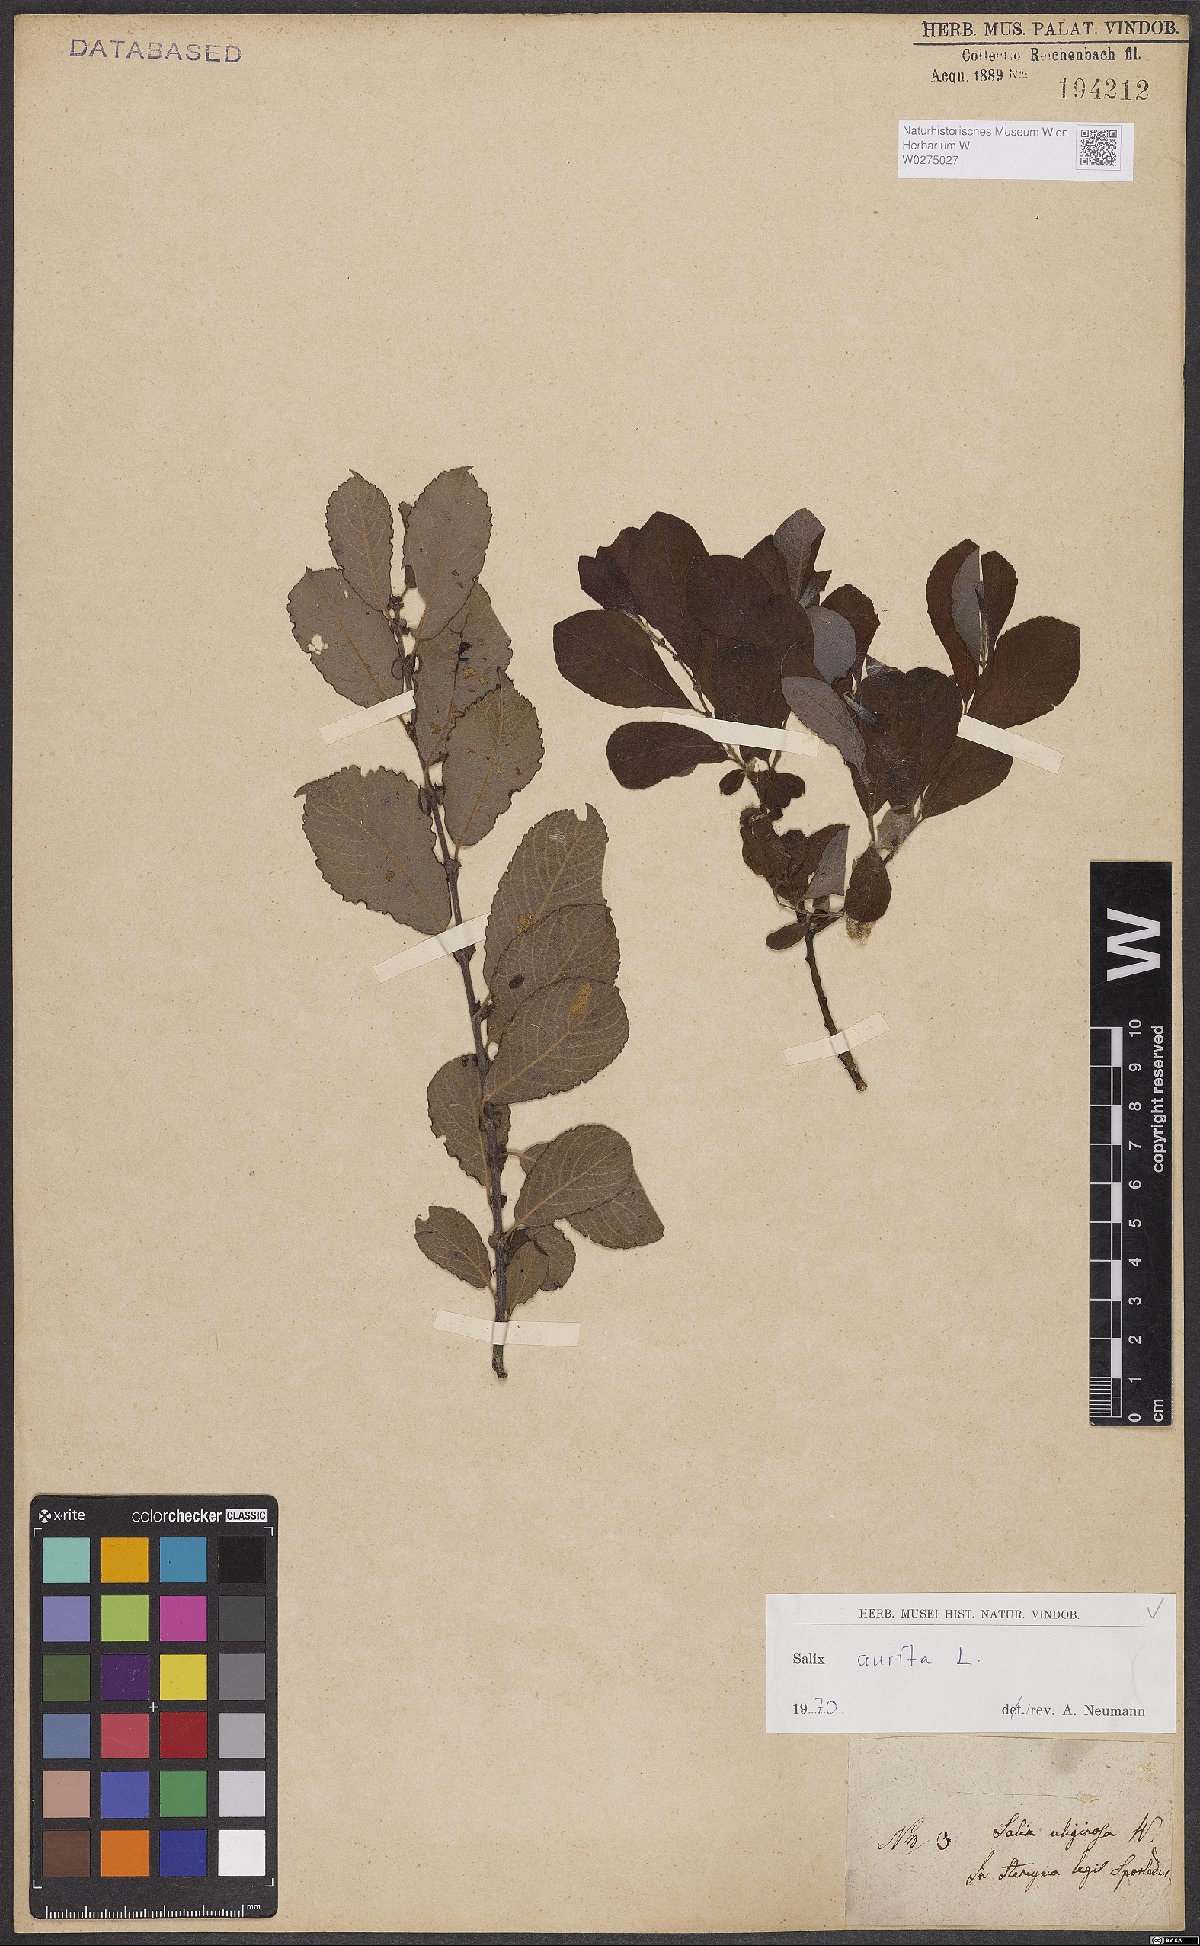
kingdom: Plantae
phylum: Tracheophyta
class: Magnoliopsida
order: Malpighiales
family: Salicaceae
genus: Salix
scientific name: Salix aurita
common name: Eared willow
